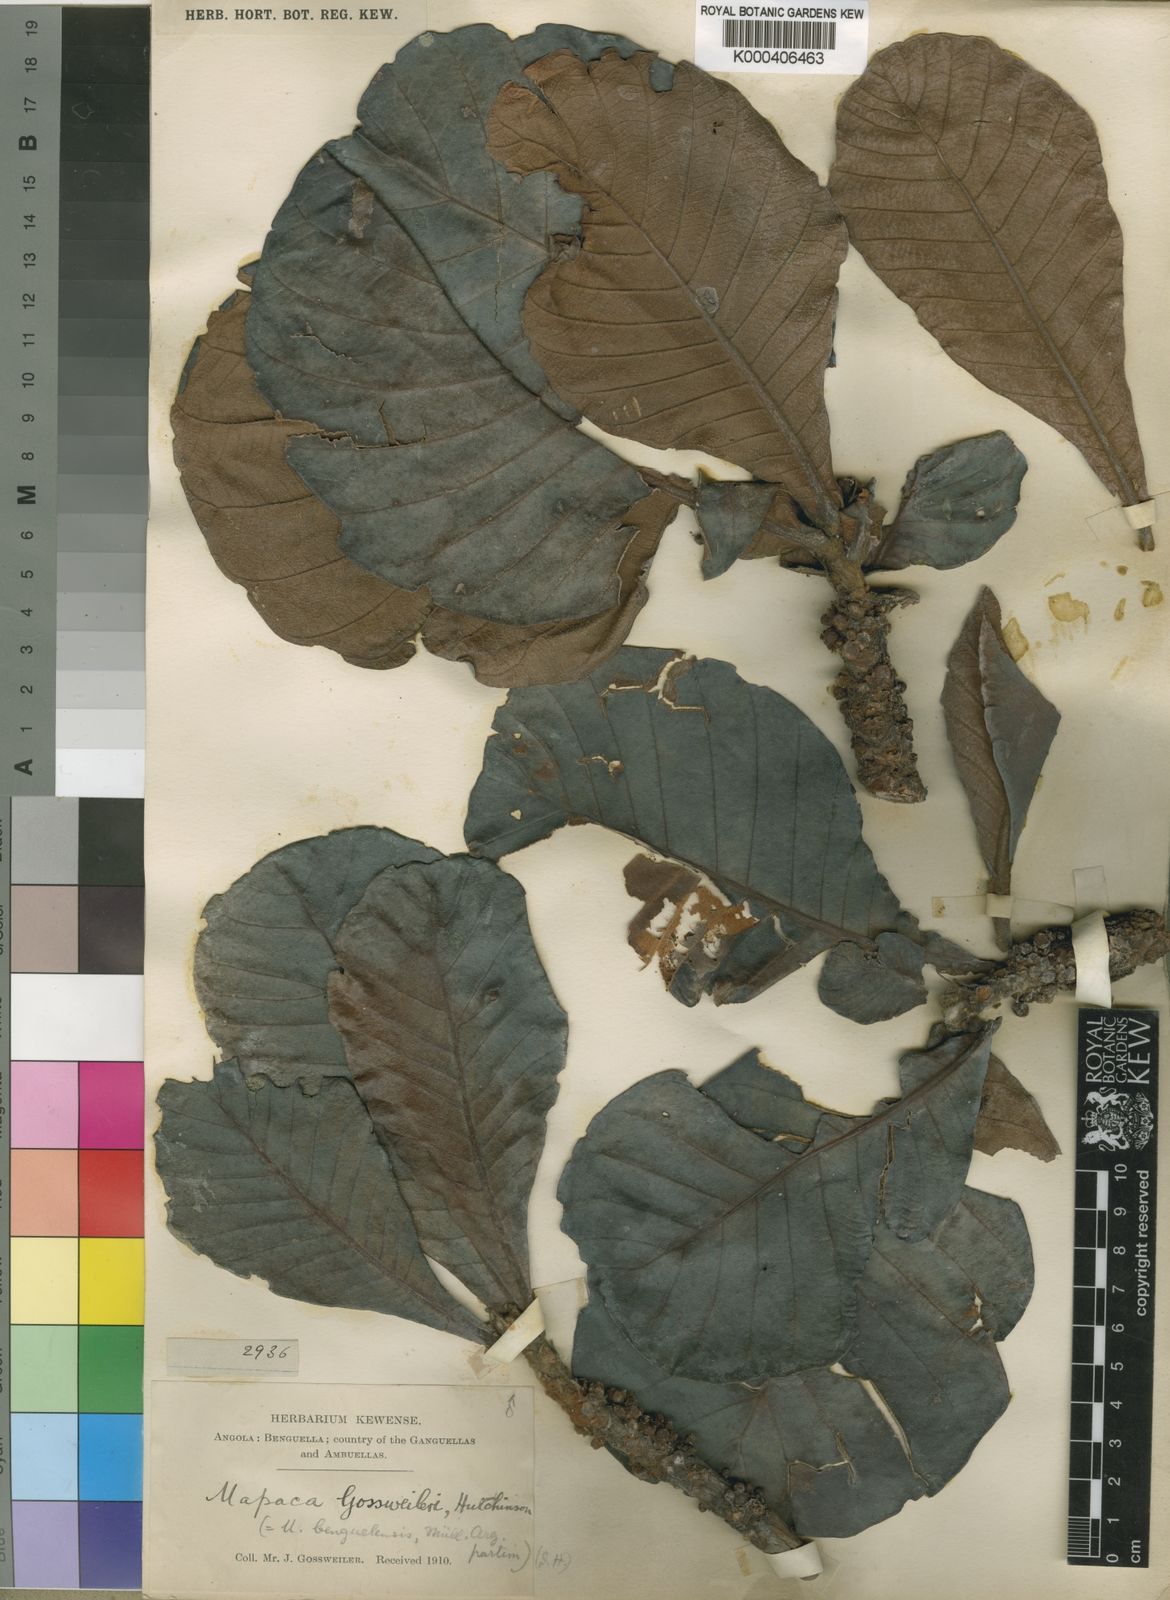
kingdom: Plantae
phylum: Tracheophyta
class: Magnoliopsida
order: Malpighiales
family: Phyllanthaceae
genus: Uapaca
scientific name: Uapaca kirkiana
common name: Wild loquat
